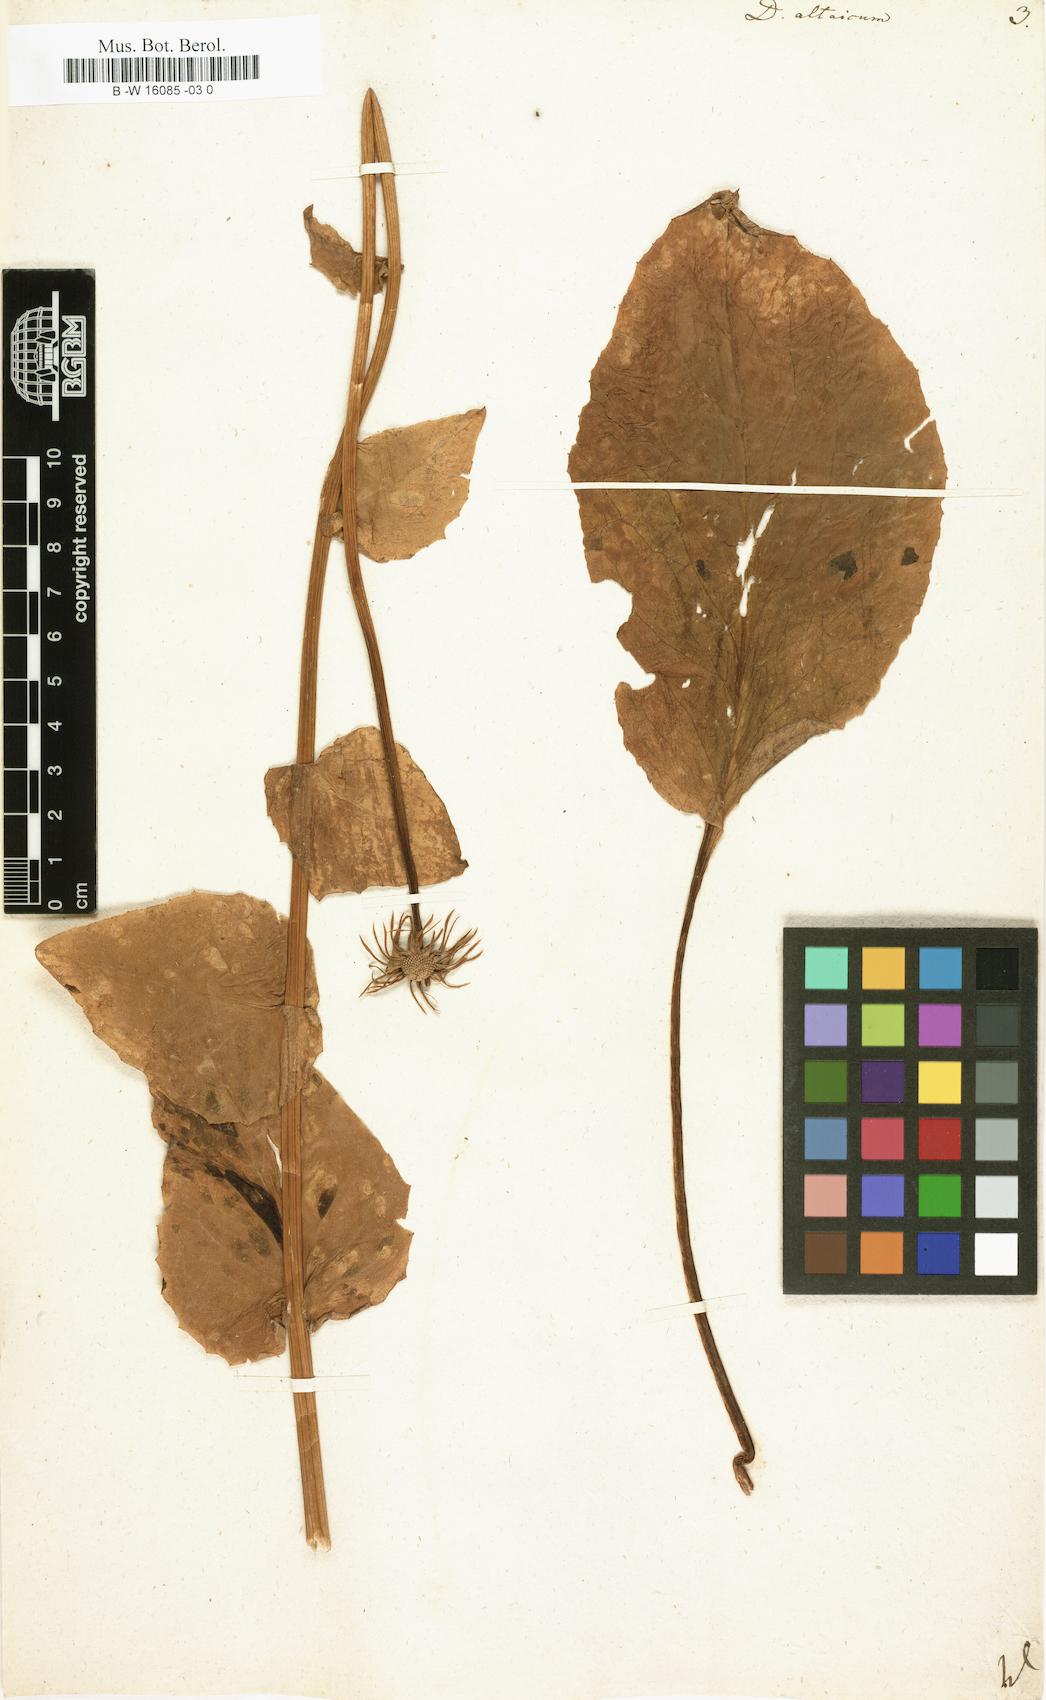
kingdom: Plantae
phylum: Tracheophyta
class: Magnoliopsida
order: Asterales
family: Asteraceae
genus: Doronicum
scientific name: Doronicum altaicum
